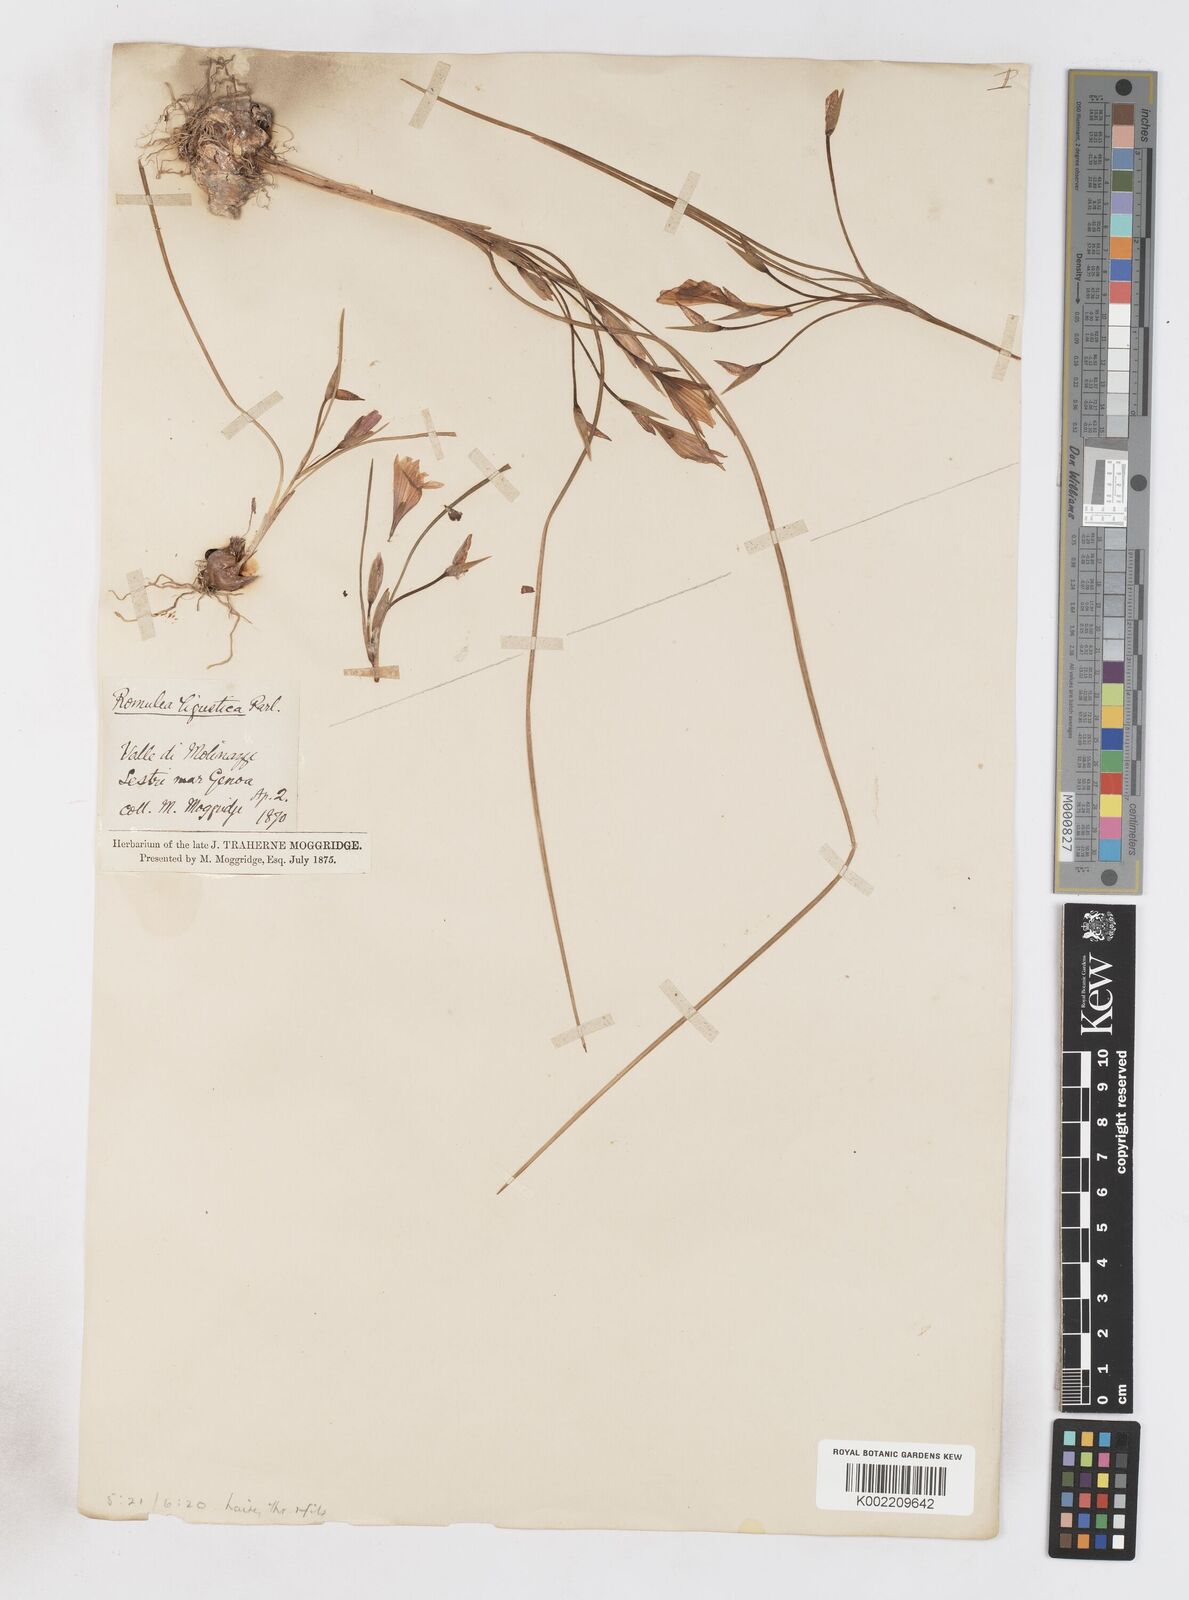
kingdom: Plantae
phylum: Tracheophyta
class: Liliopsida
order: Asparagales
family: Iridaceae
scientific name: Iridaceae
